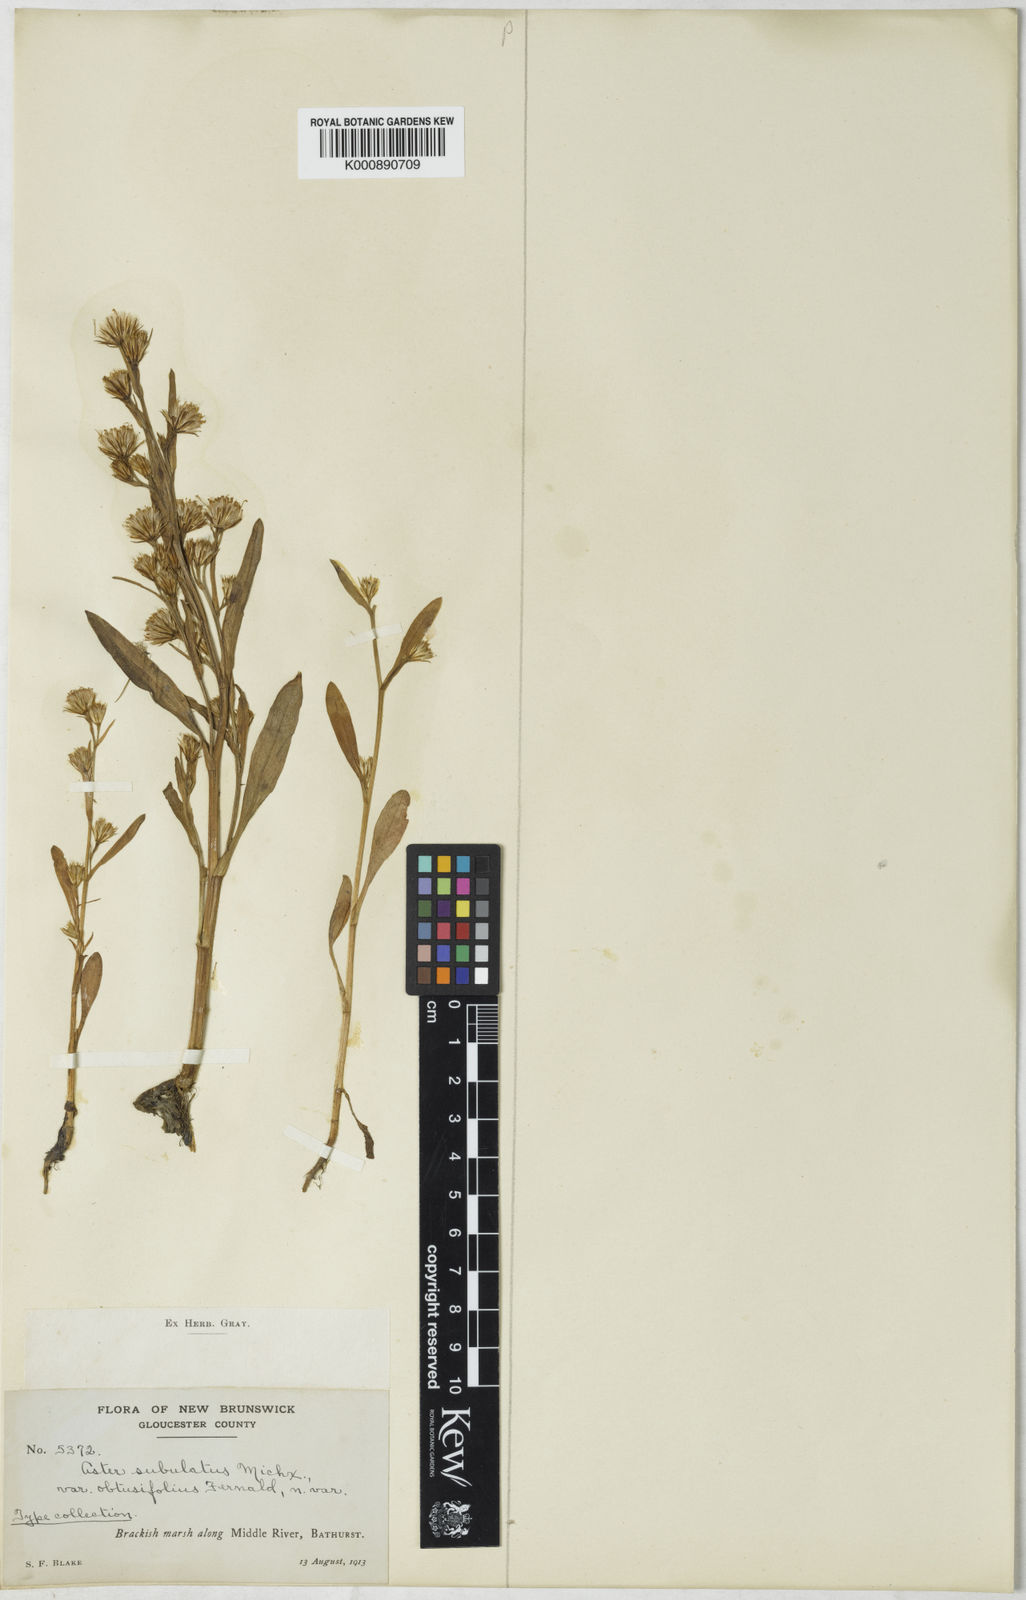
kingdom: Plantae
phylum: Tracheophyta
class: Magnoliopsida
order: Asterales
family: Asteraceae
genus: Symphyotrichum
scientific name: Symphyotrichum subulatum
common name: Annual saltmarsh aster
